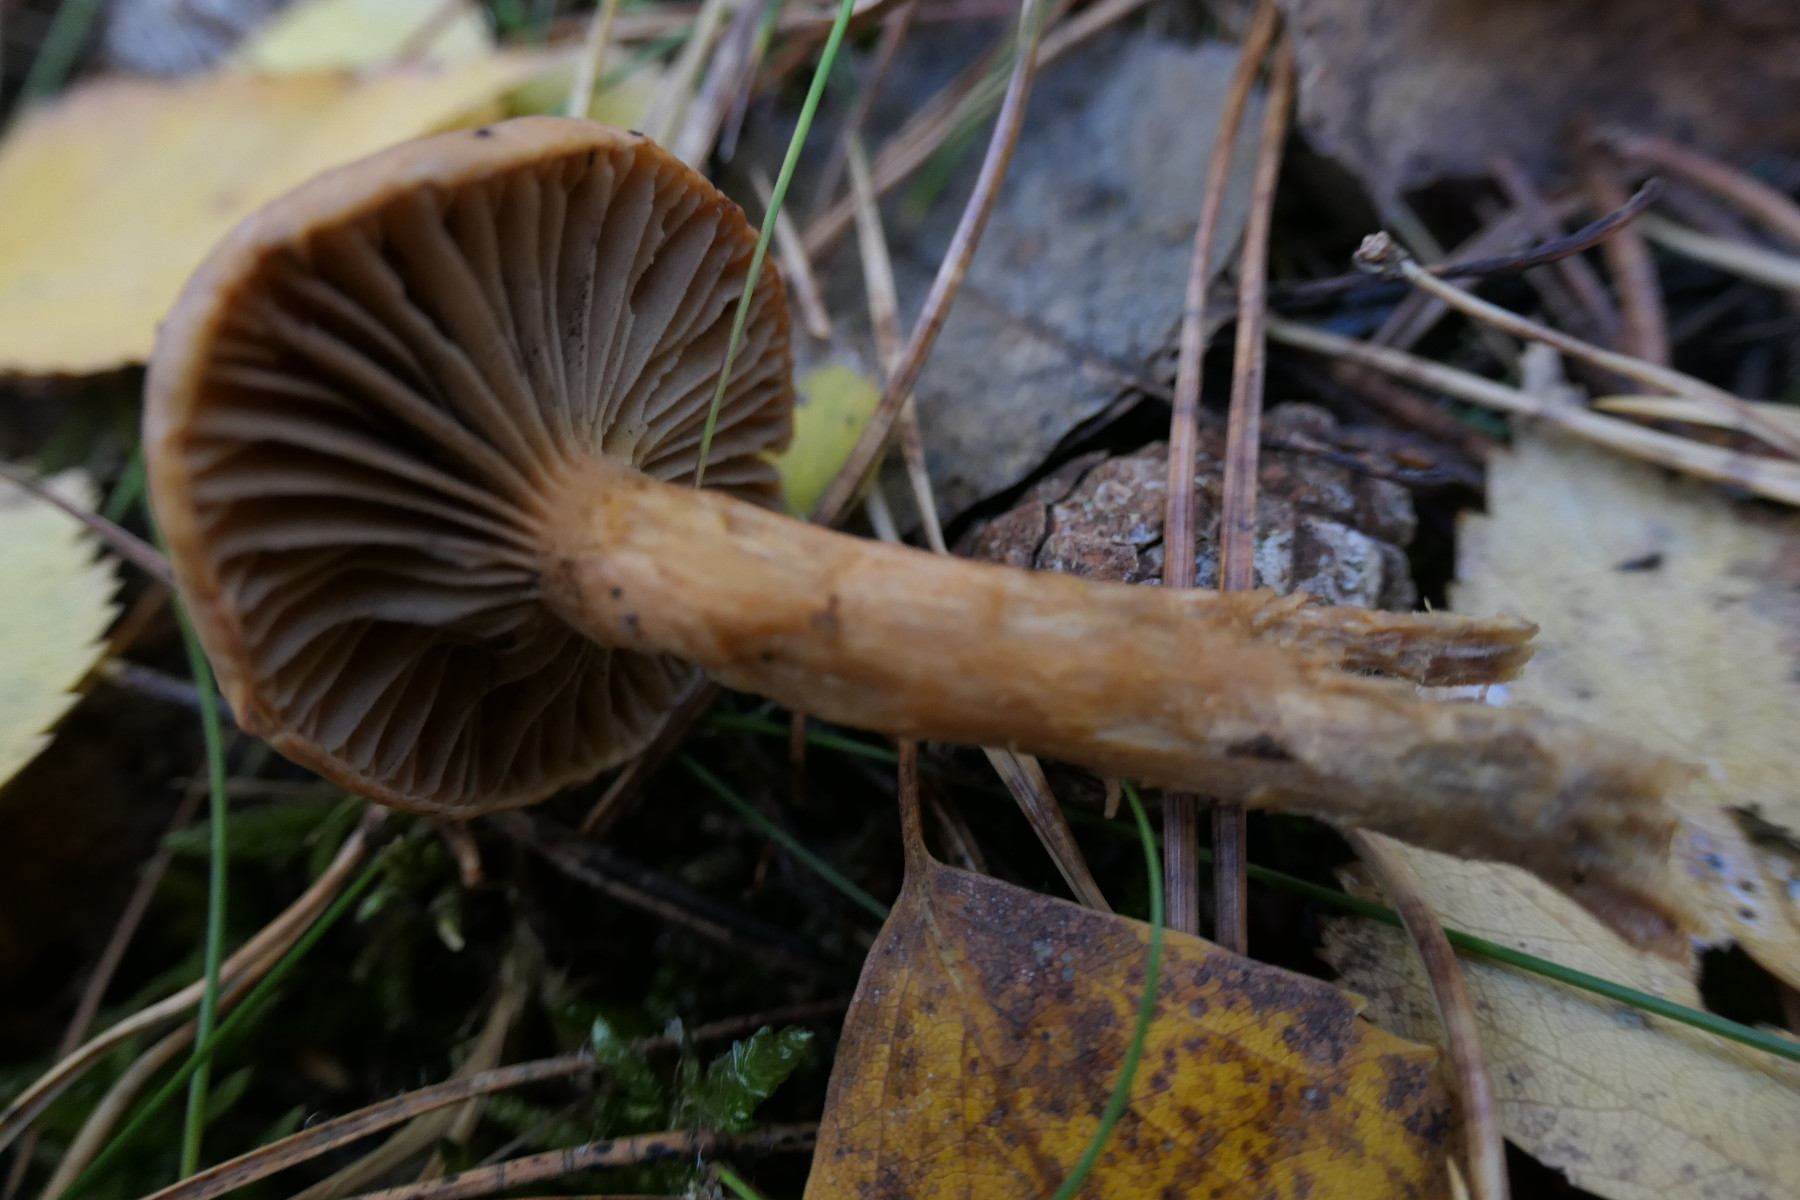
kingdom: Fungi
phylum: Basidiomycota
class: Agaricomycetes
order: Boletales
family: Gomphidiaceae
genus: Chroogomphus
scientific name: Chroogomphus rutilus
